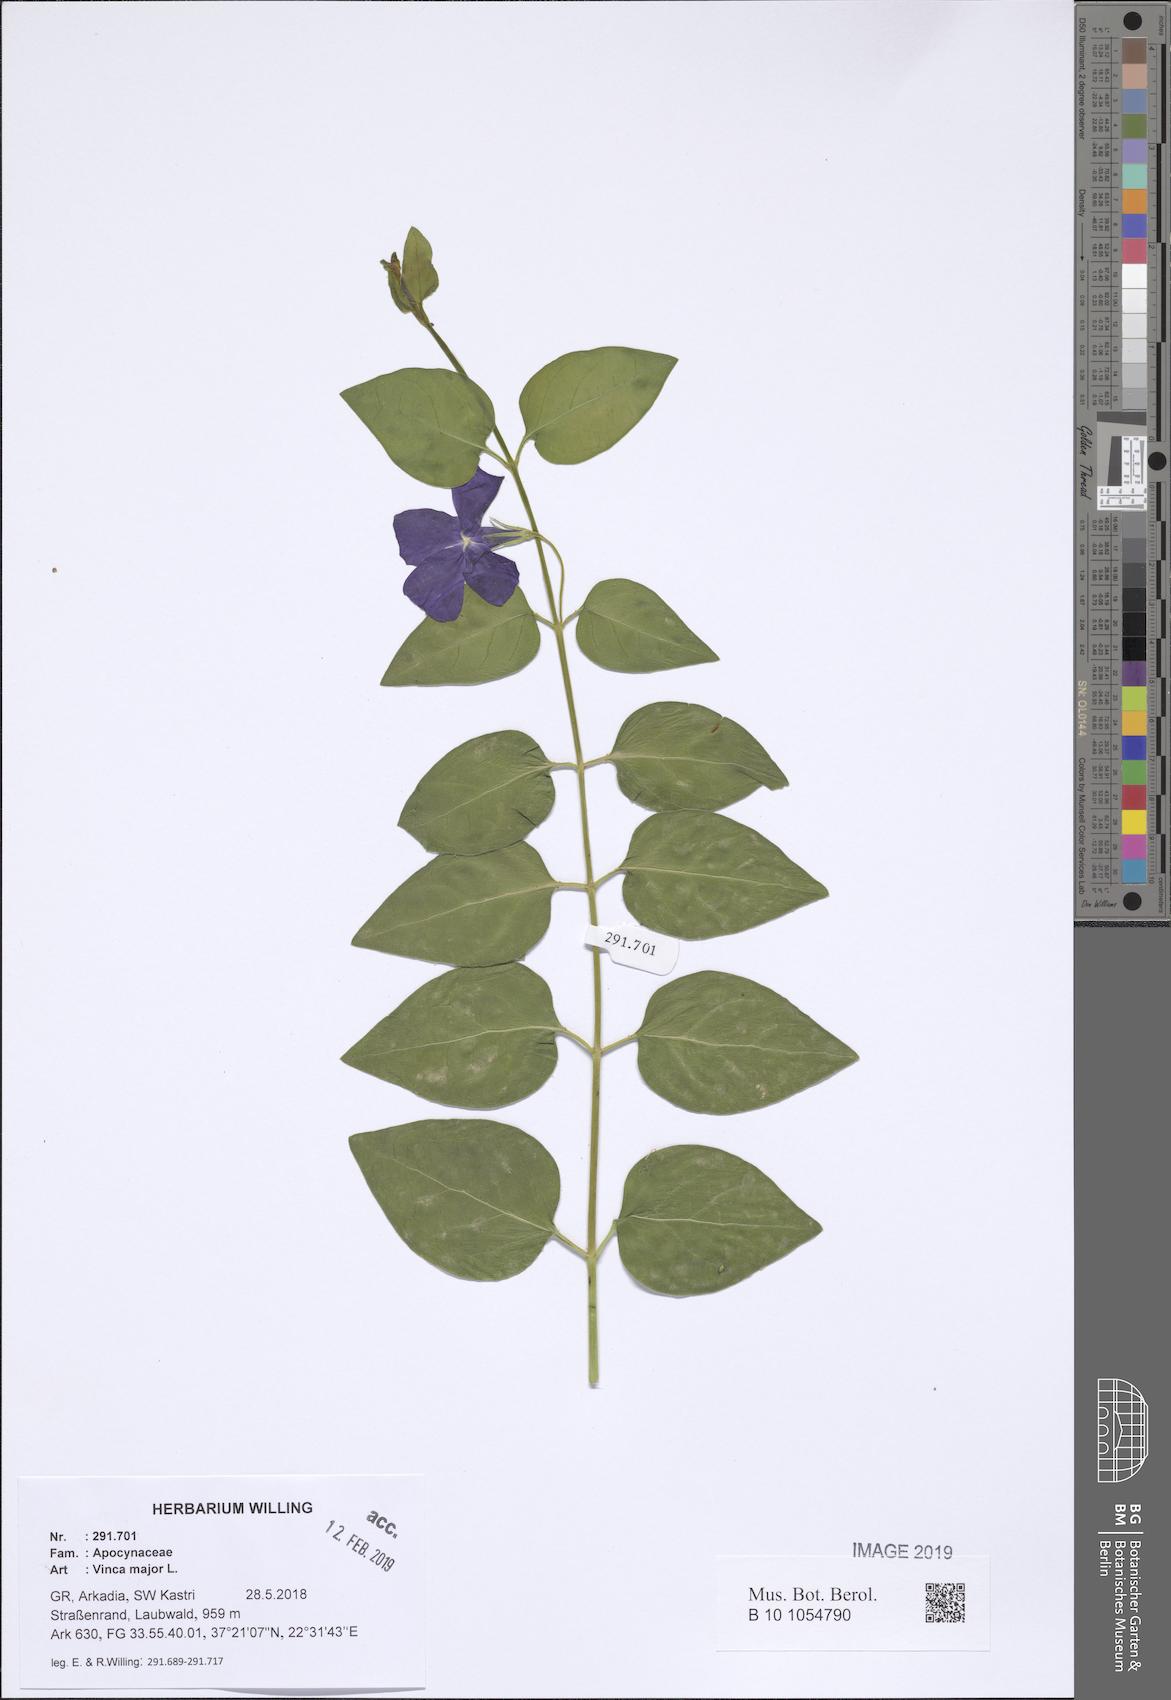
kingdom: Plantae
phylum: Tracheophyta
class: Magnoliopsida
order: Gentianales
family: Apocynaceae
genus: Vinca
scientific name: Vinca major
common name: Greater periwinkle
